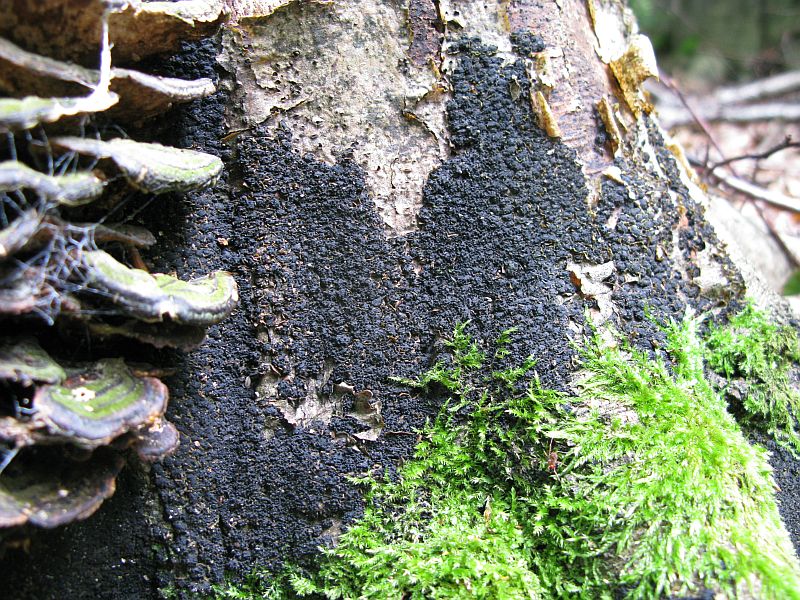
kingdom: Fungi
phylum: Ascomycota
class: Sordariomycetes
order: Xylariales
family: Melogrammataceae
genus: Melogramma
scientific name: Melogramma spiniferum
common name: bøgefod-kulhals
